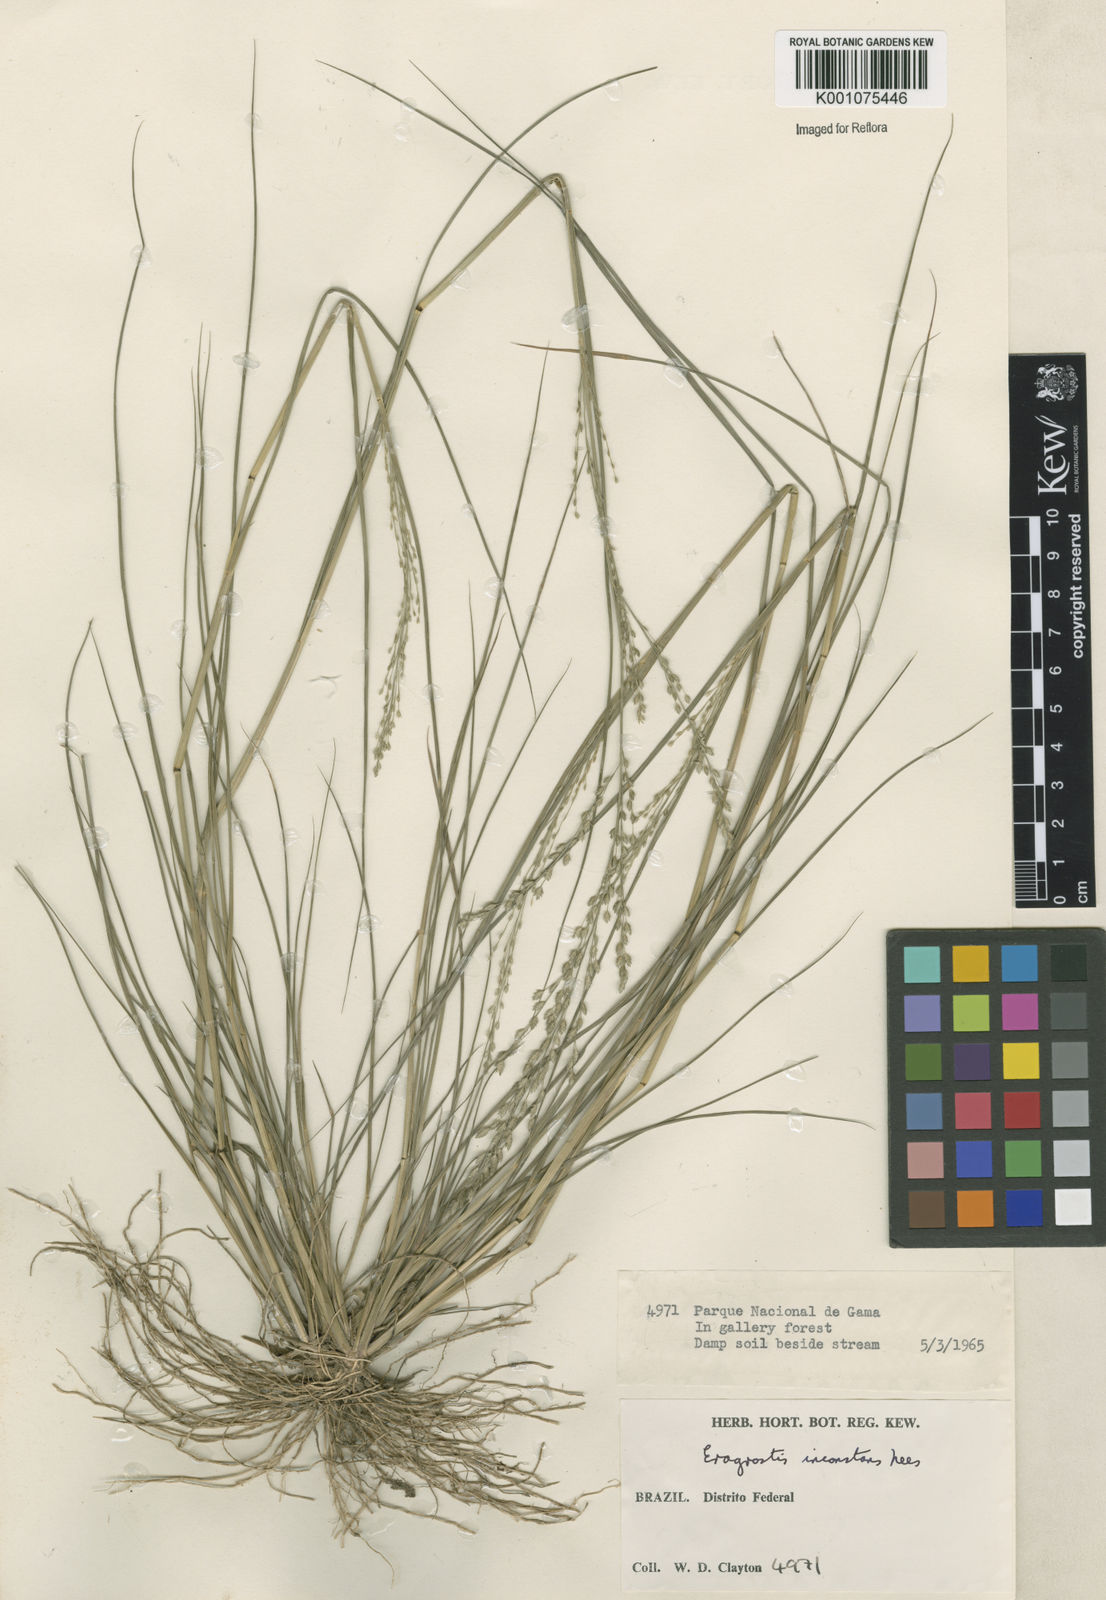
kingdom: Plantae
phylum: Tracheophyta
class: Liliopsida
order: Poales
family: Poaceae
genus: Eragrostis
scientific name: Eragrostis rufescens
